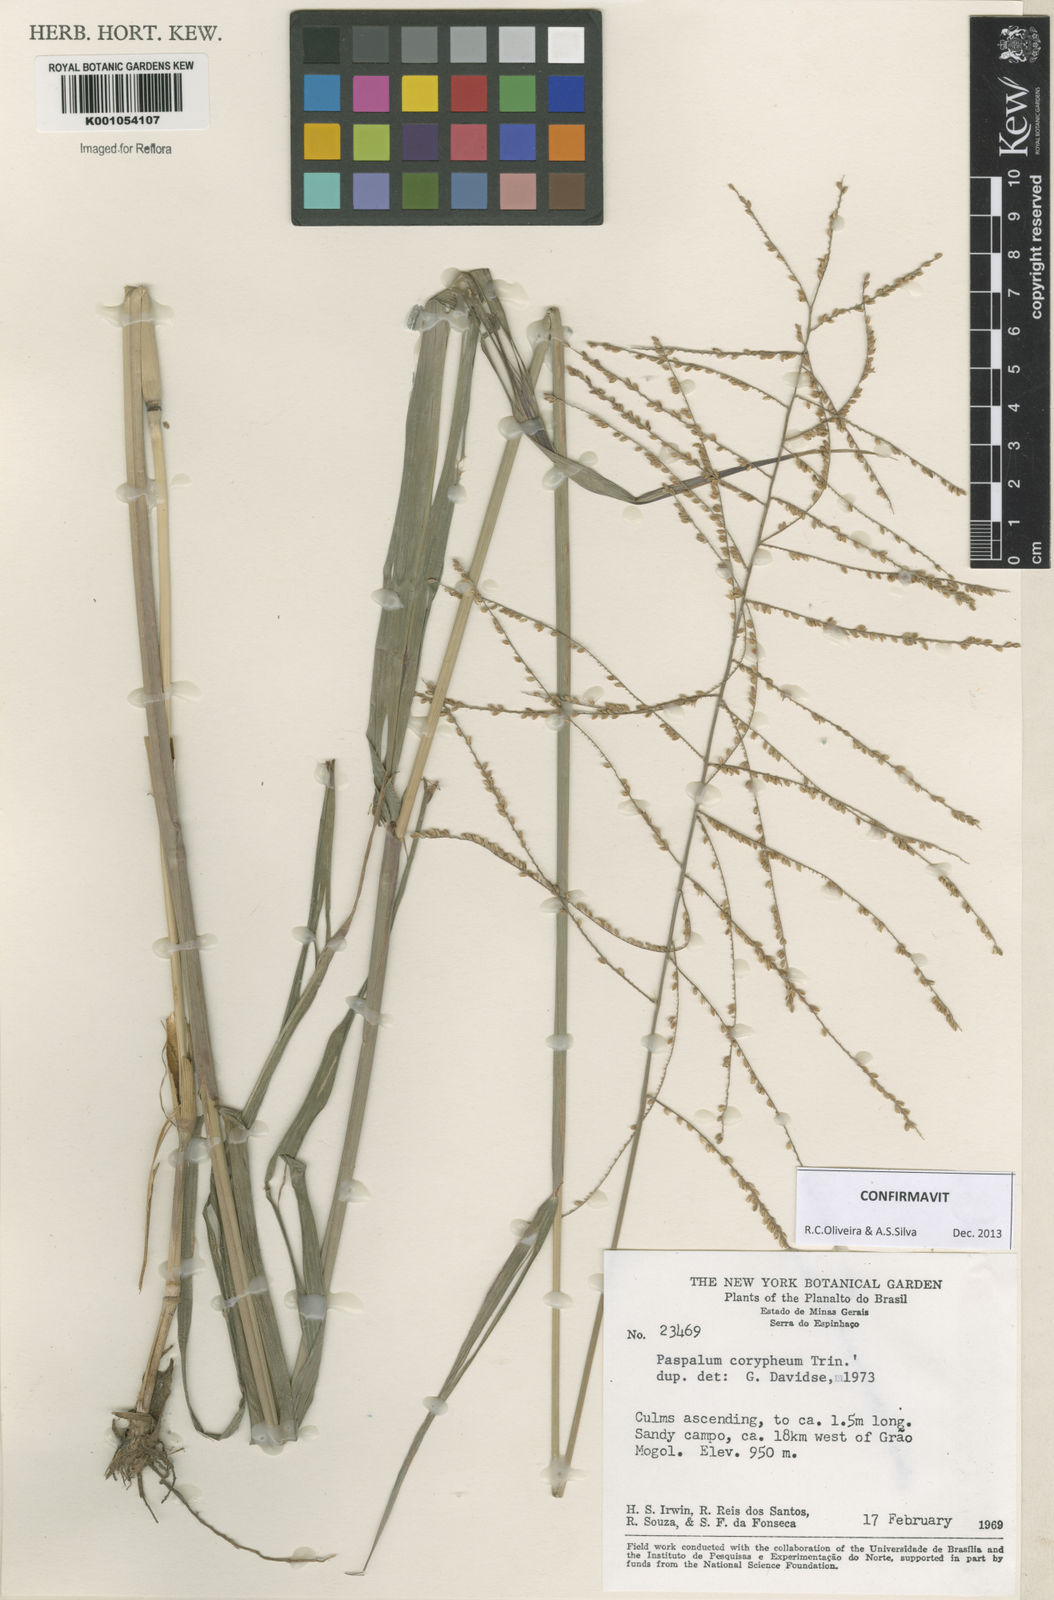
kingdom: Plantae
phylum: Tracheophyta
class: Liliopsida
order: Poales
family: Poaceae
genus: Paspalum
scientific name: Paspalum coryphaeum
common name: Emperor crowngrass
